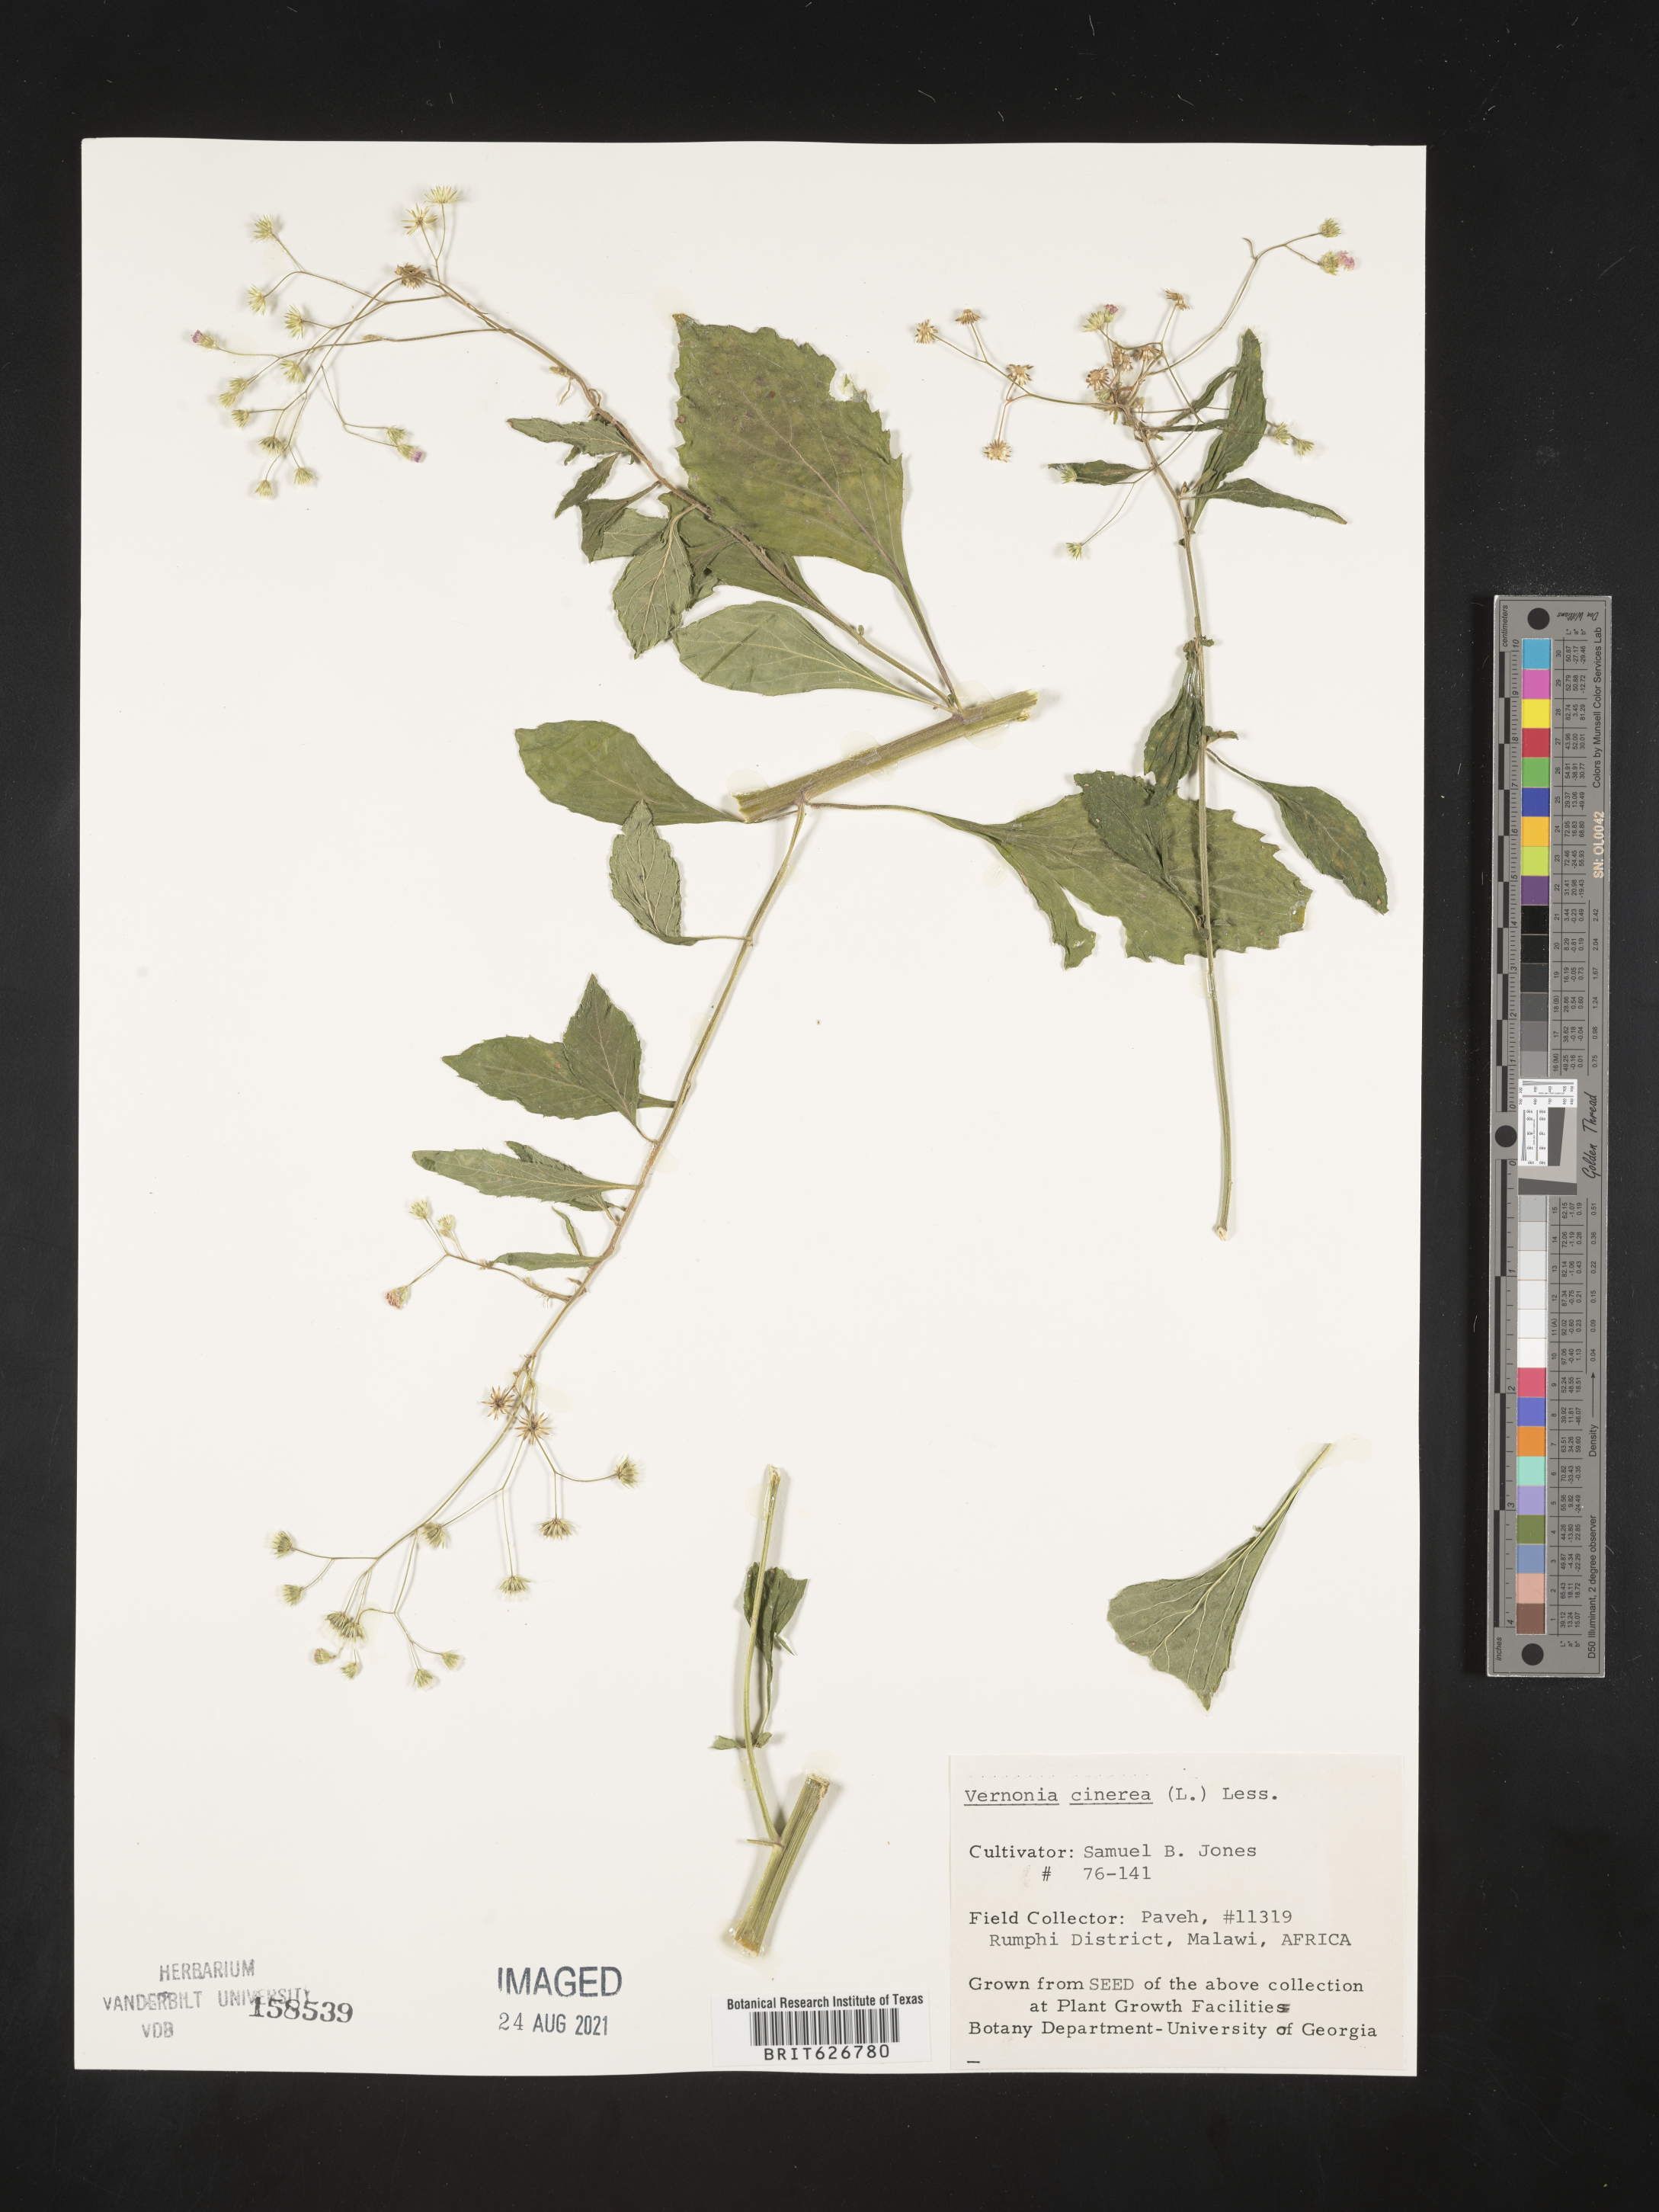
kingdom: Plantae
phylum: Tracheophyta
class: Magnoliopsida
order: Asterales
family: Asteraceae
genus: Cyanthillium
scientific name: Cyanthillium cinereum
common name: Little ironweed
